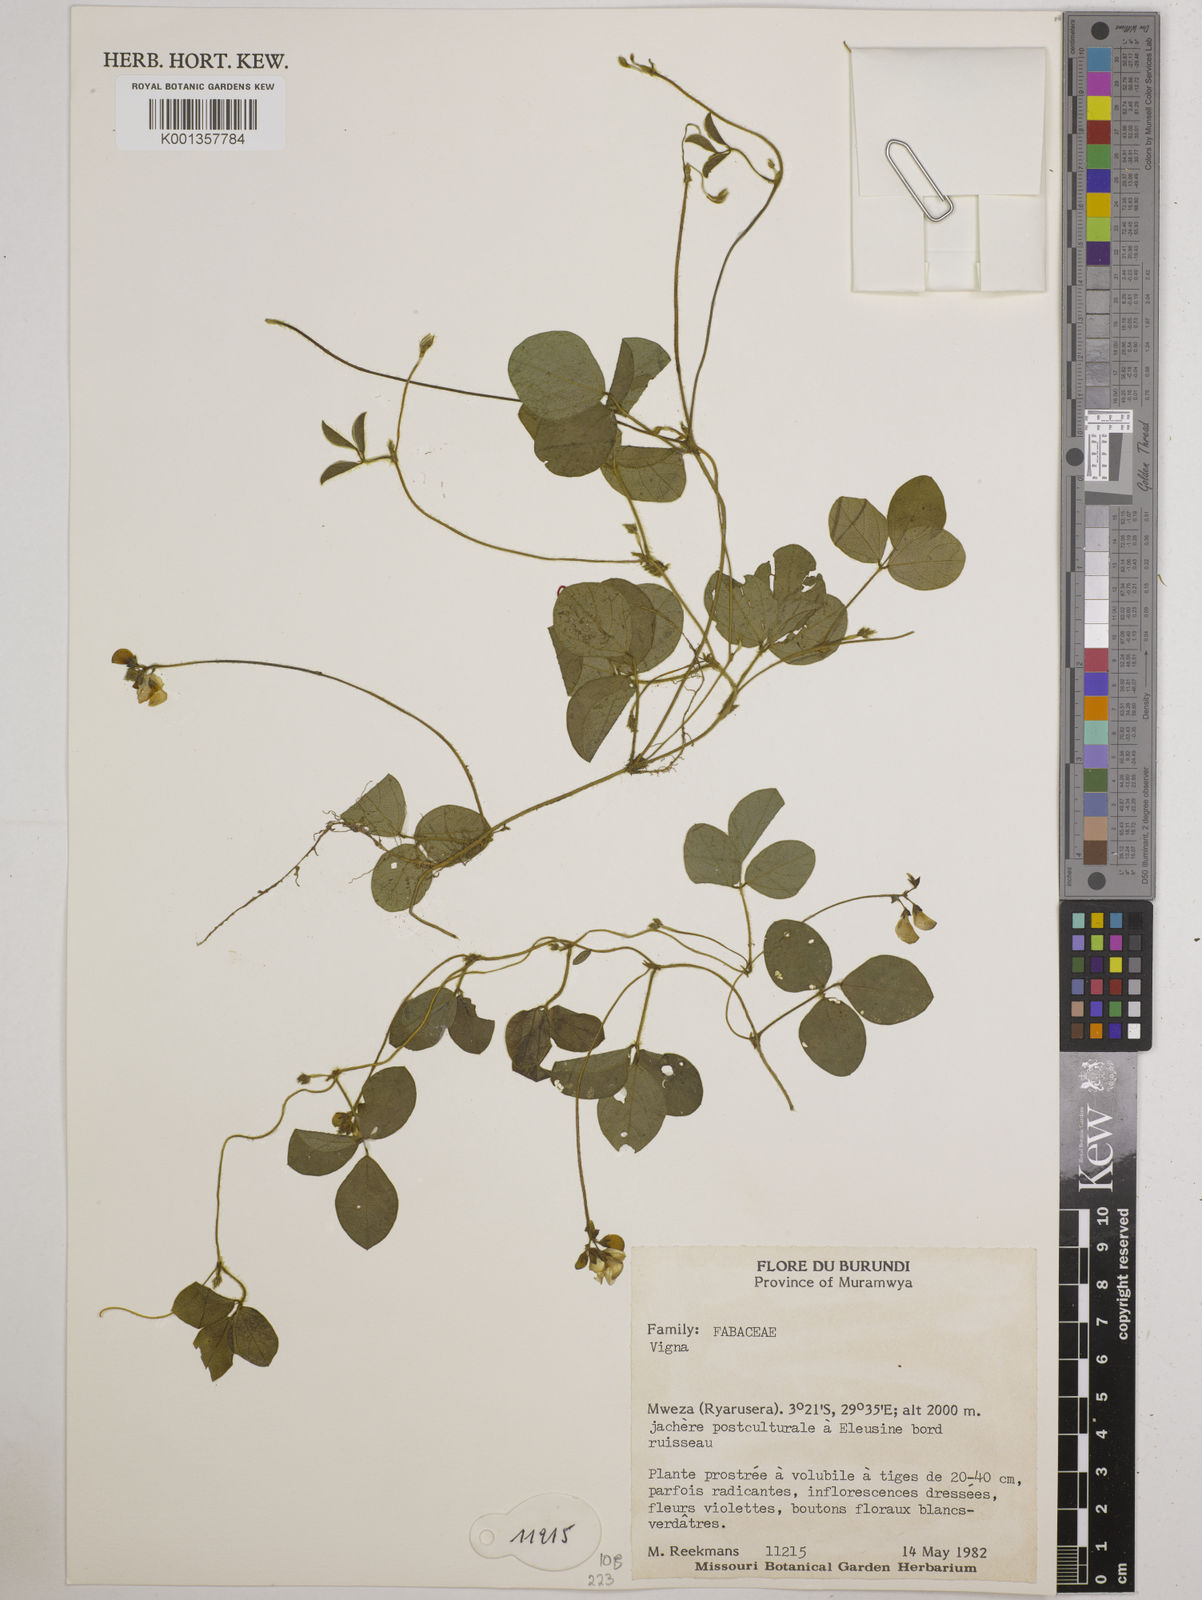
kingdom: Plantae
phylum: Tracheophyta
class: Magnoliopsida
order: Fabales
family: Fabaceae
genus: Vigna
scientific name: Vigna
